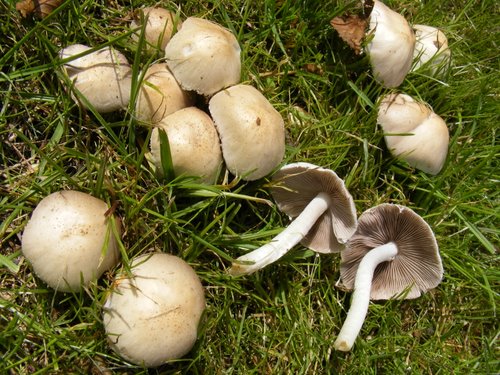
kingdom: Fungi
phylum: Basidiomycota
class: Agaricomycetes
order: Agaricales
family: Psathyrellaceae
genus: Candolleomyces
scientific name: Candolleomyces candolleanus
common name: Candolles mørkhat
